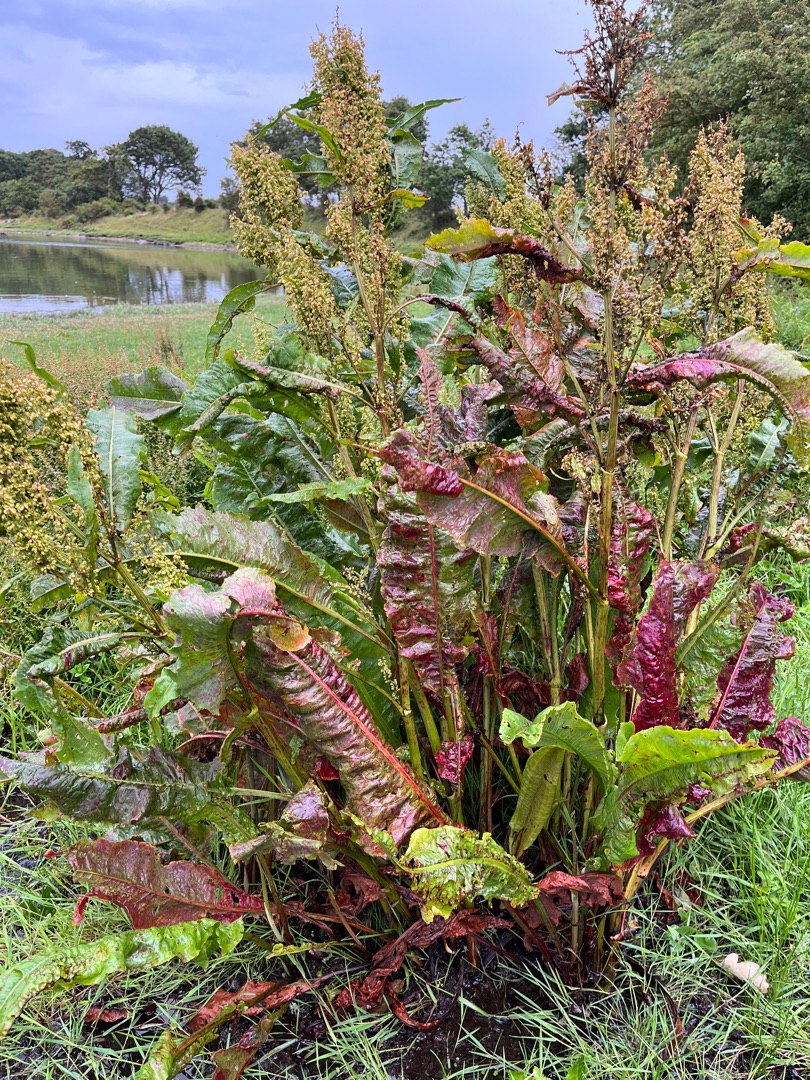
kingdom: Plantae
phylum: Tracheophyta
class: Magnoliopsida
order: Caryophyllales
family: Polygonaceae
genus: Rumex
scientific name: Rumex hydrolapathum
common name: Vand-skræppe
